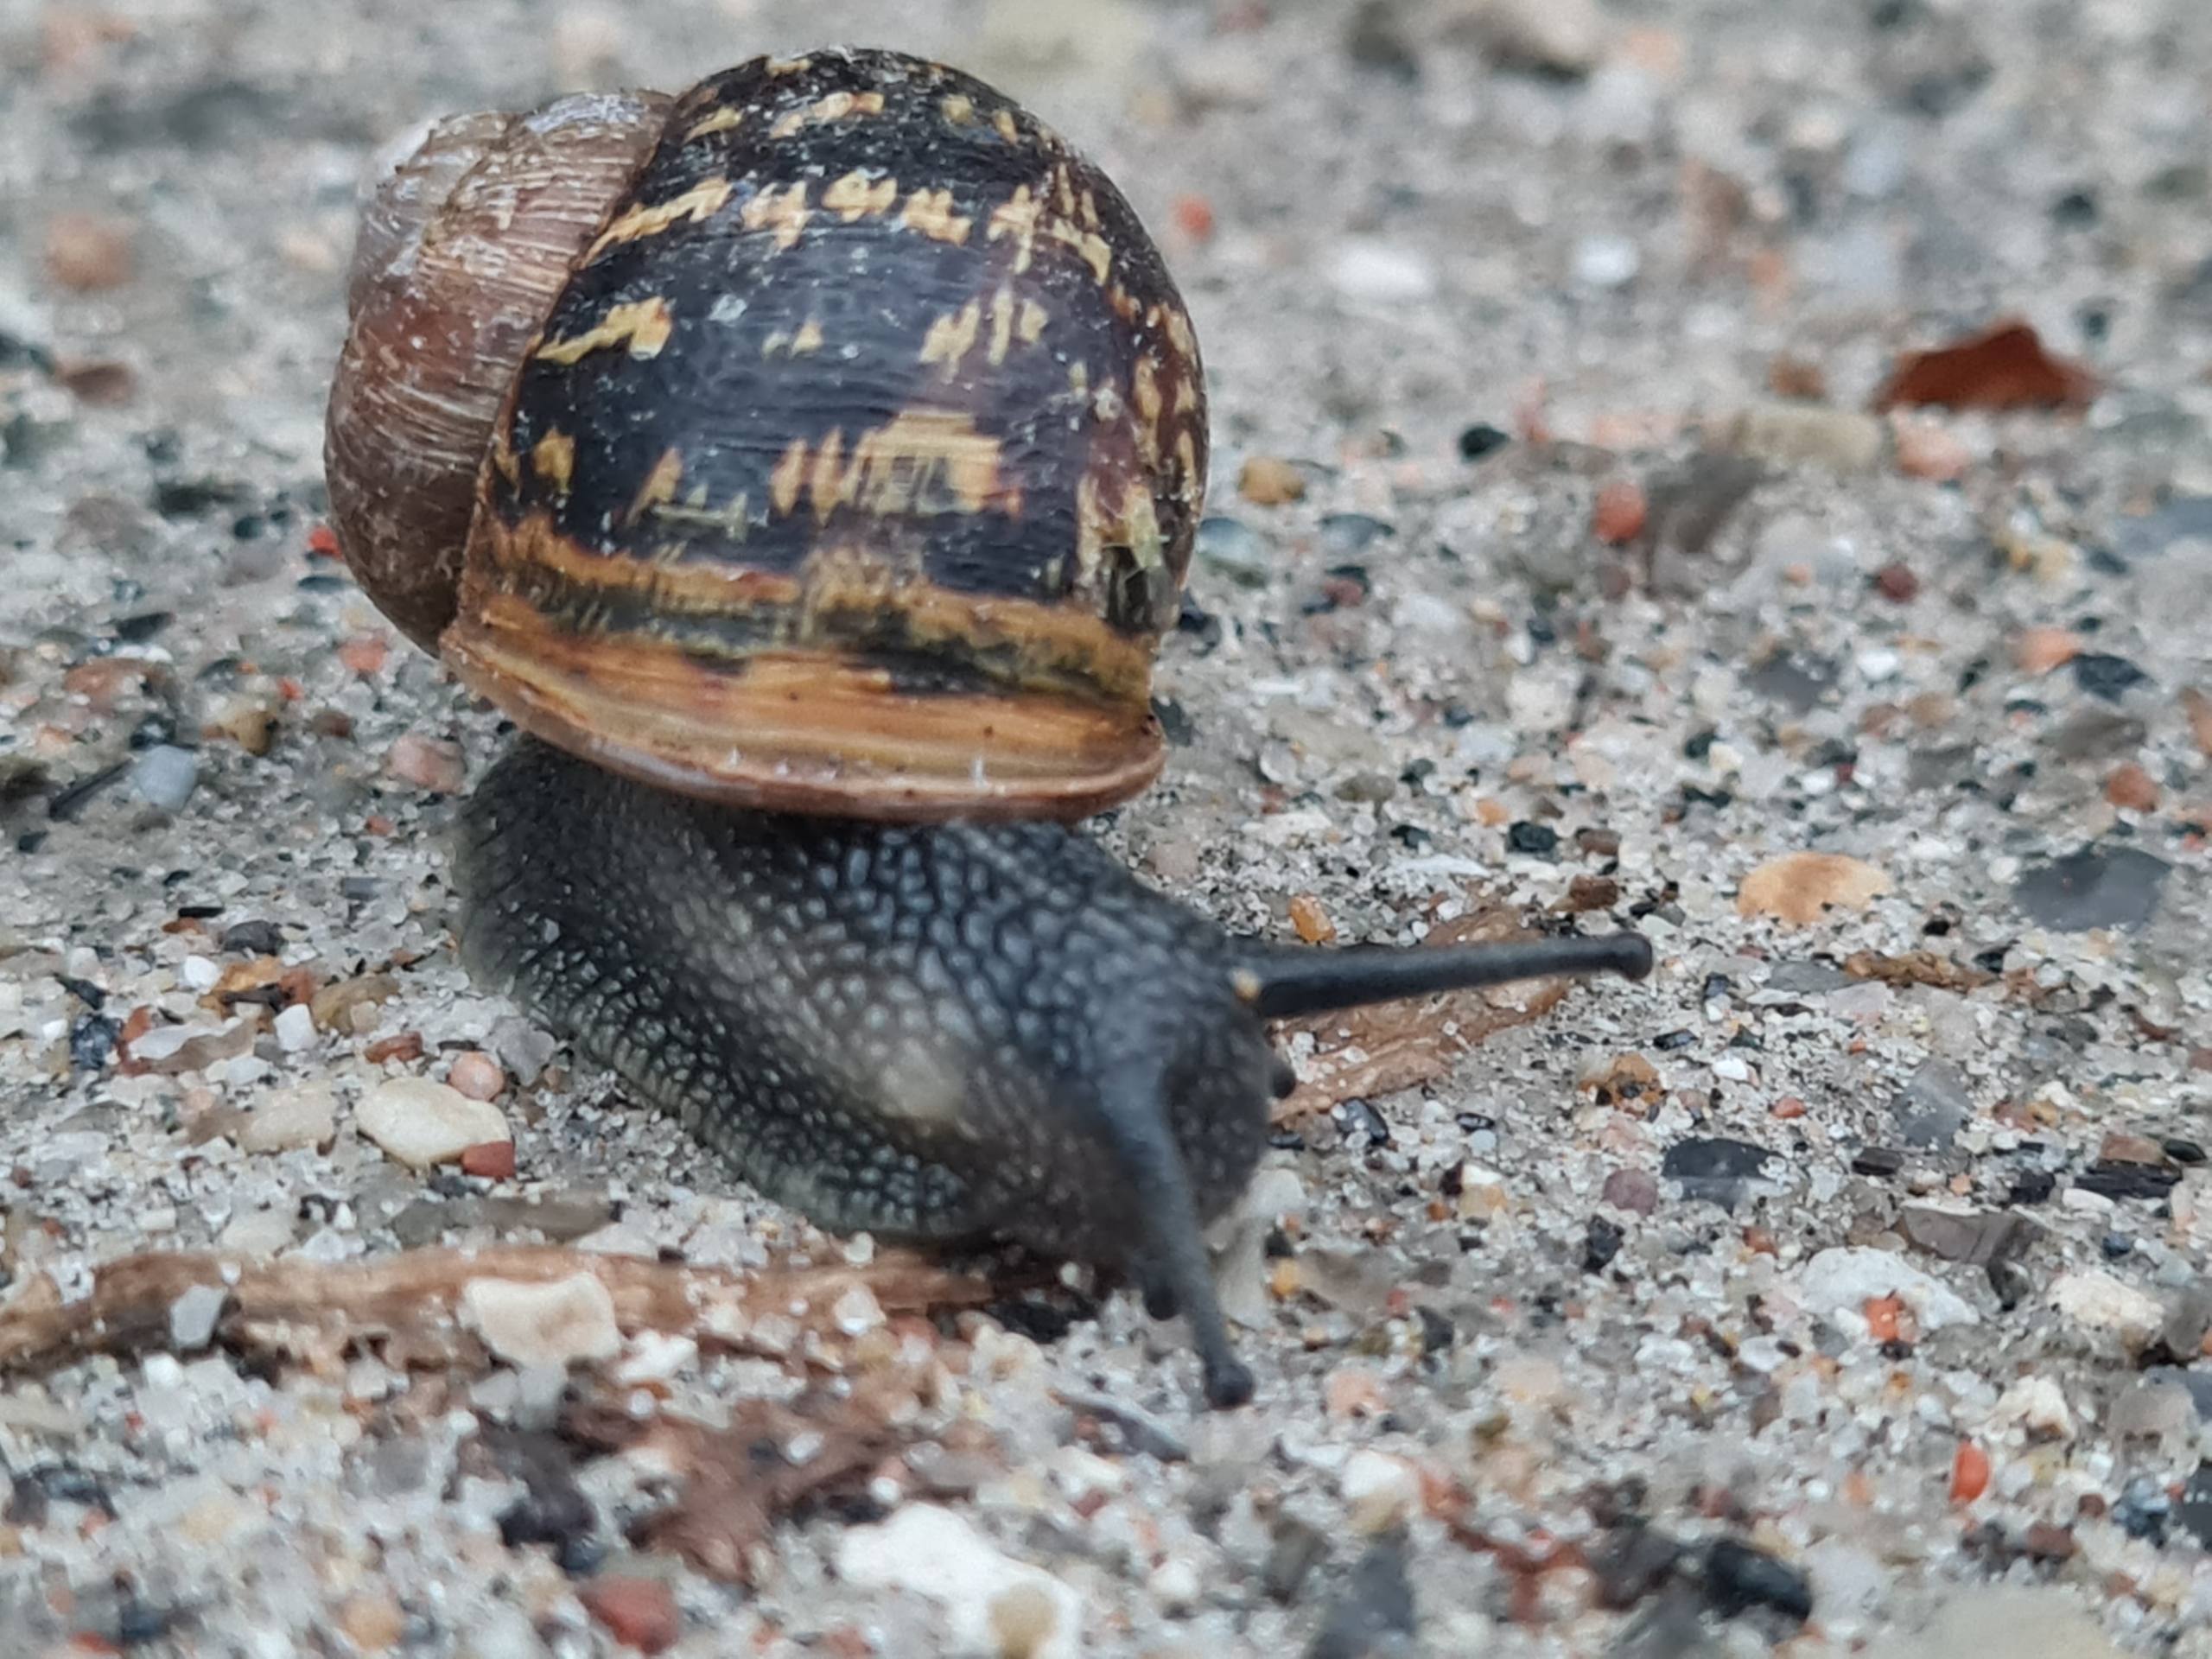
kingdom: Animalia
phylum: Mollusca
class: Gastropoda
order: Stylommatophora
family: Helicidae
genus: Cornu
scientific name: Cornu aspersum
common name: Plettet voldsnegl
